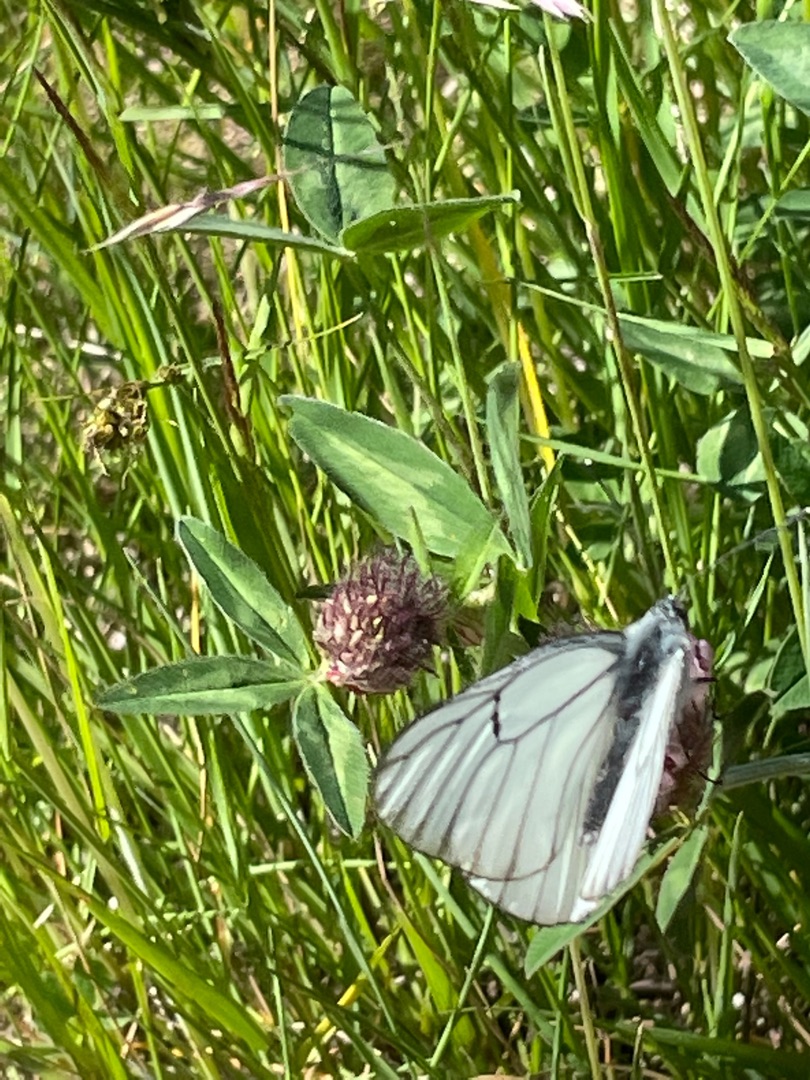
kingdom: Animalia
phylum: Arthropoda
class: Insecta
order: Lepidoptera
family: Pieridae
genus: Aporia
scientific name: Aporia crataegi
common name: Sortåret hvidvinge
